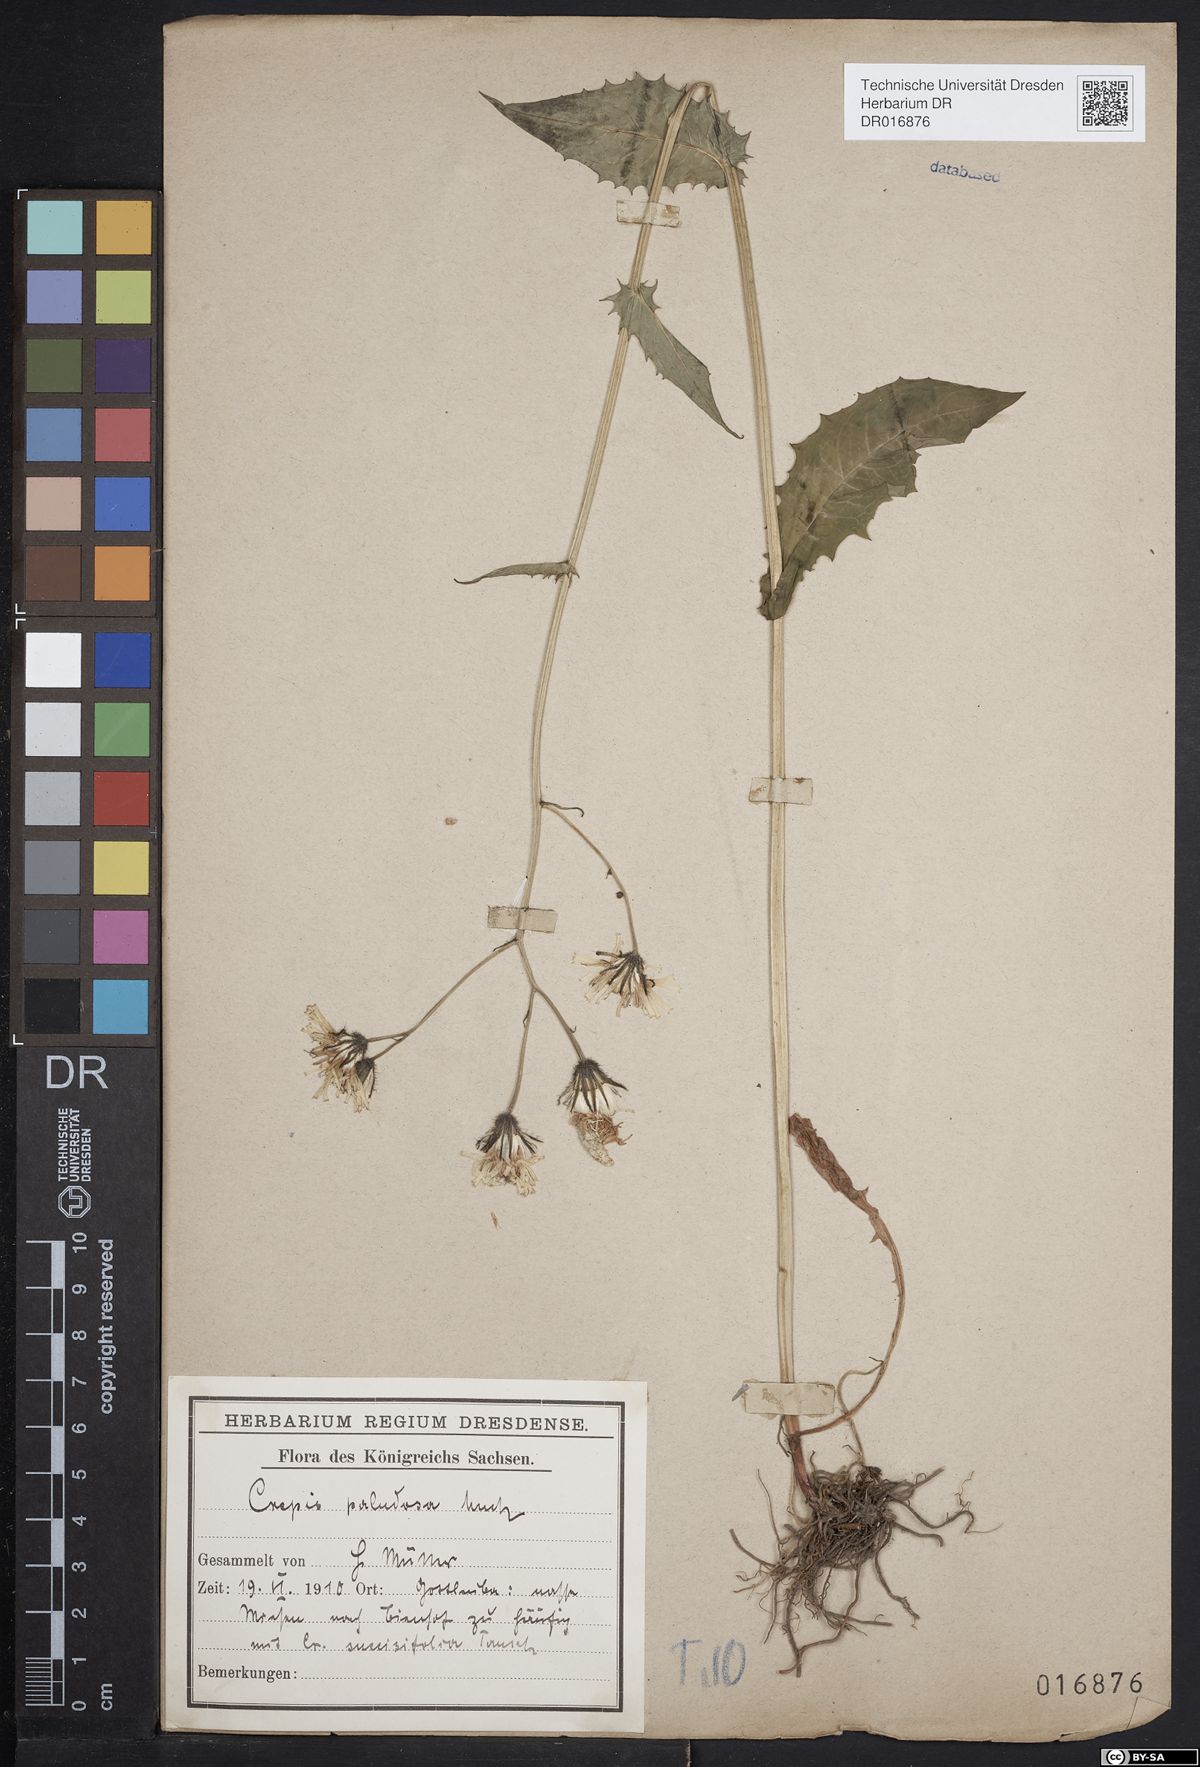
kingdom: Plantae
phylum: Tracheophyta
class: Magnoliopsida
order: Asterales
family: Asteraceae
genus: Crepis
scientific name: Crepis paludosa
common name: Marsh hawk's-beard
